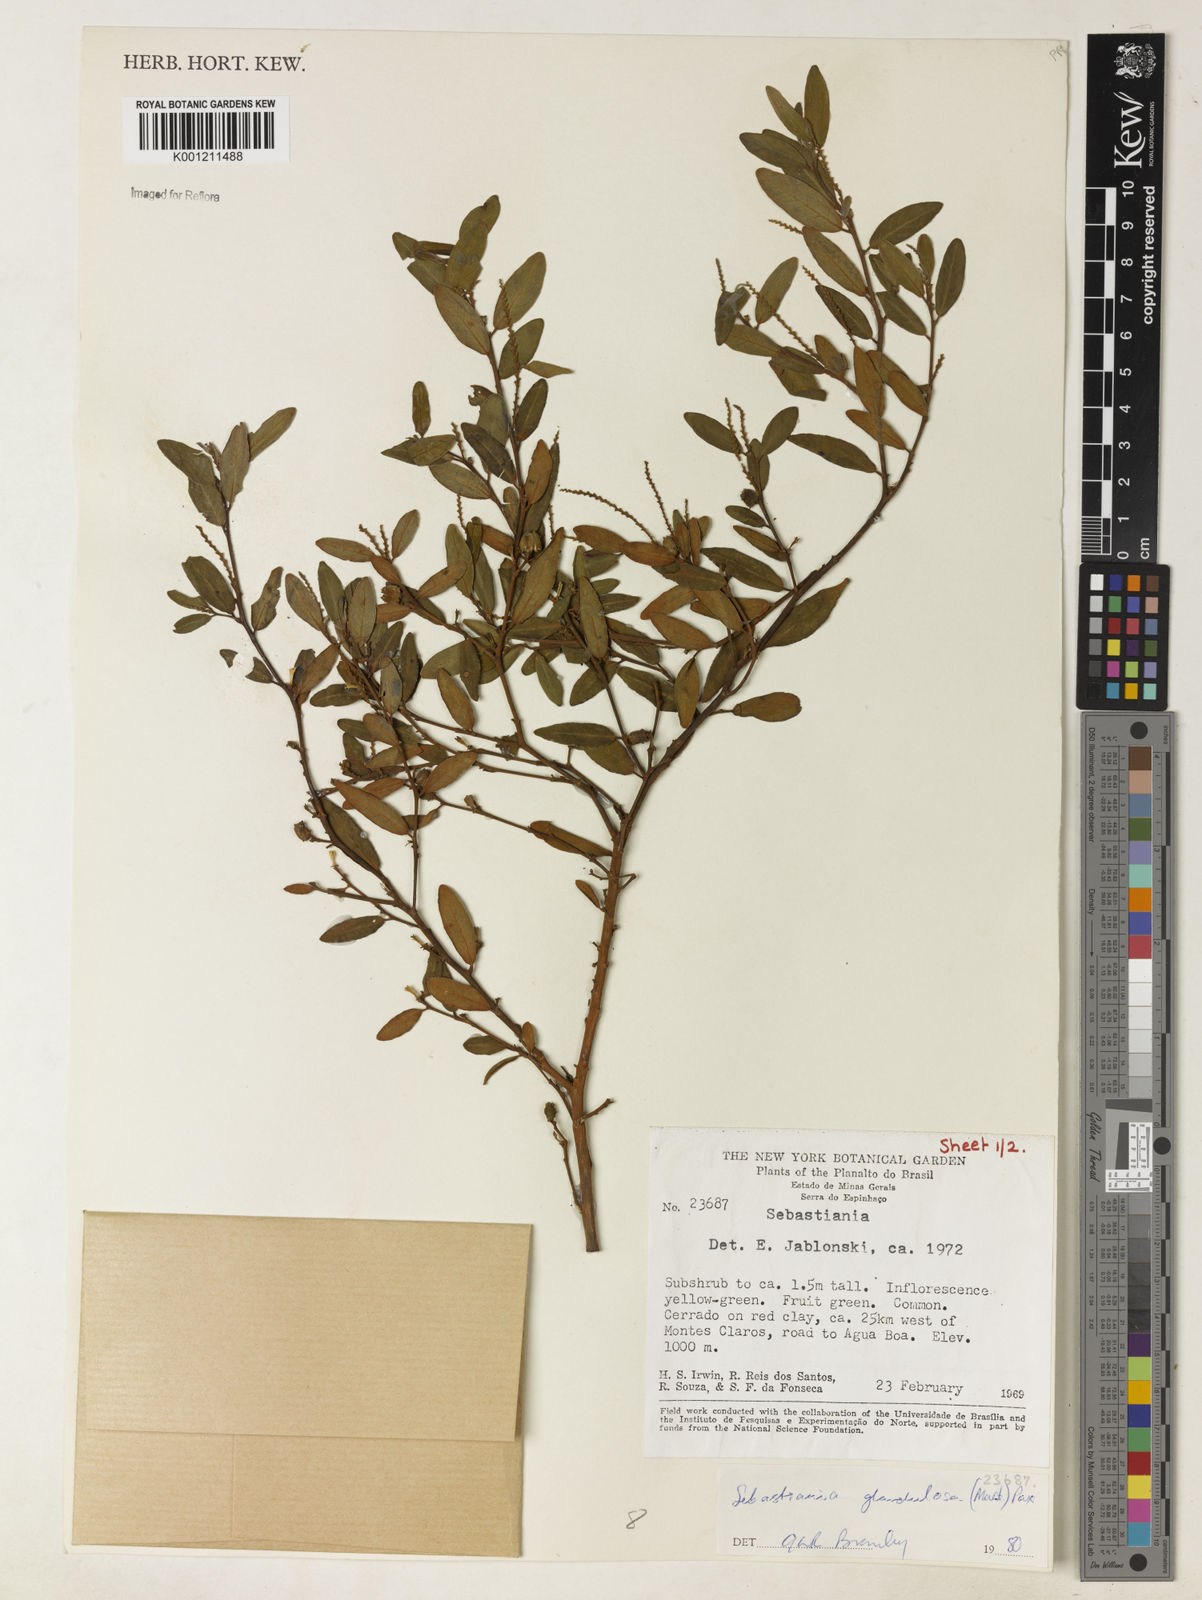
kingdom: Plantae
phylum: Tracheophyta
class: Magnoliopsida
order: Malpighiales
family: Euphorbiaceae
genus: Microstachys
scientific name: Microstachys glandulosa
